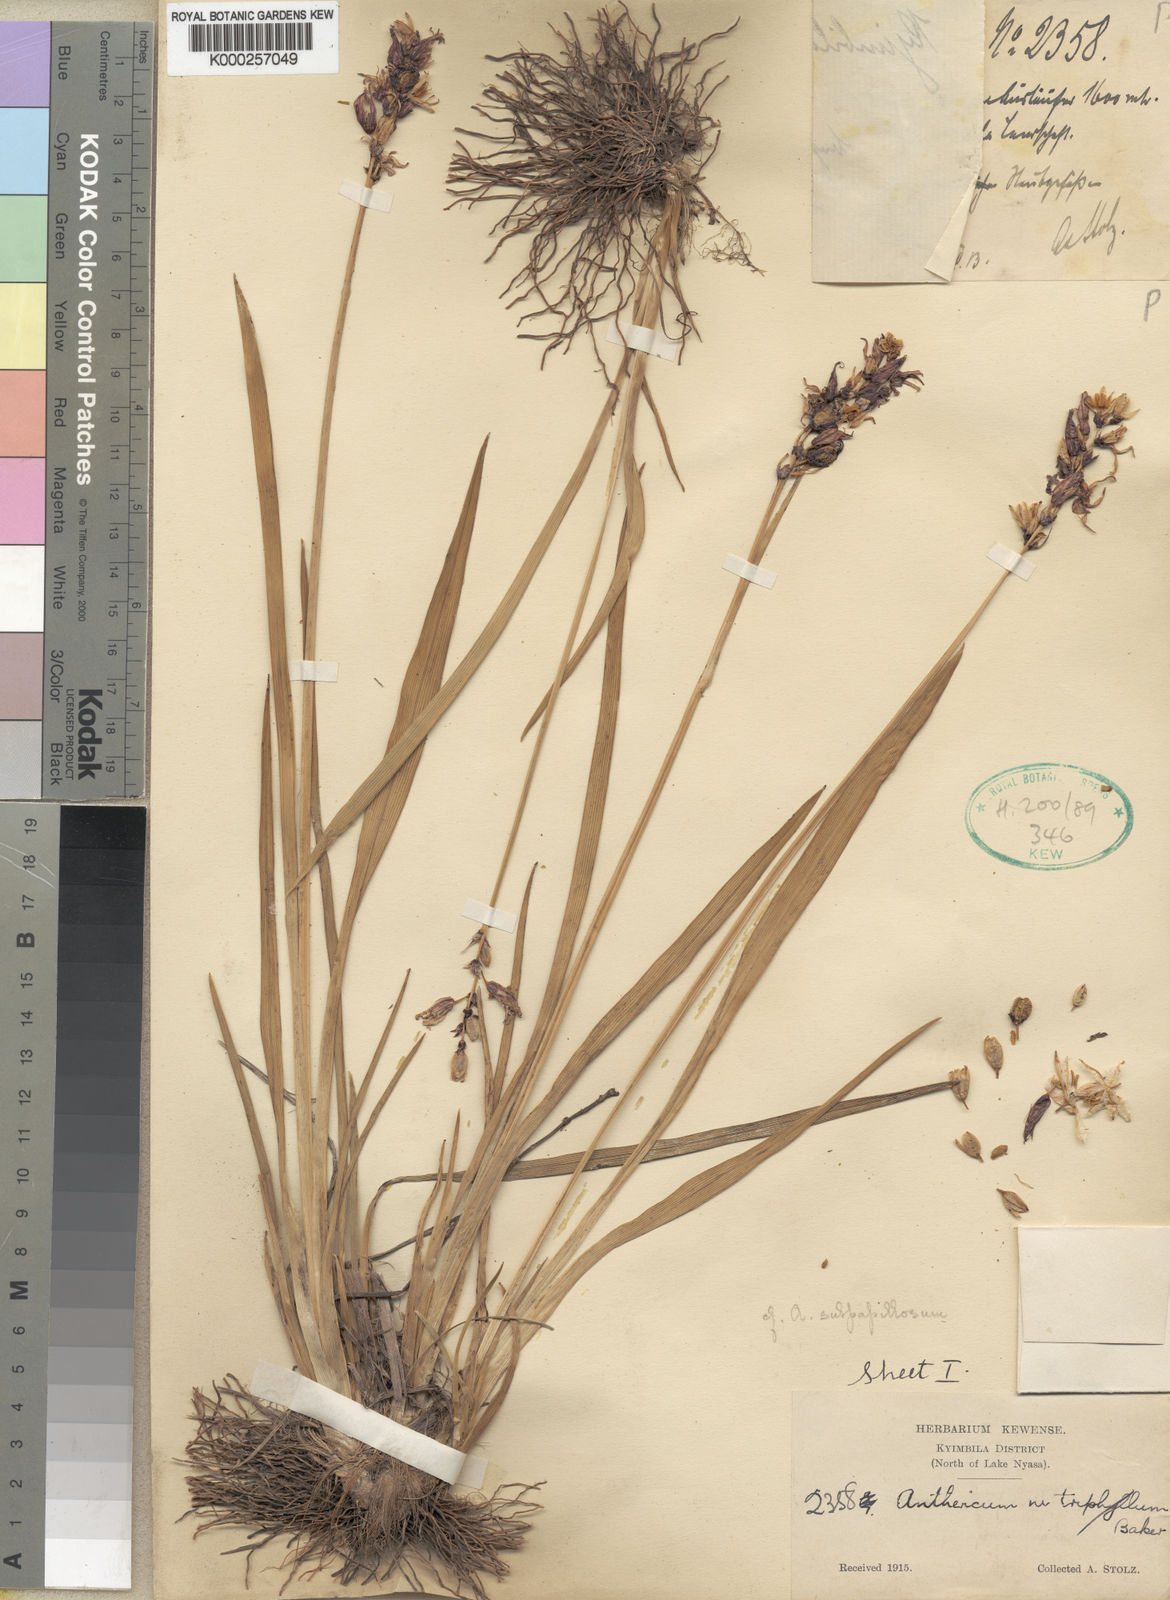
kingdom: Plantae
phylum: Tracheophyta
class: Liliopsida
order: Asparagales
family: Asparagaceae
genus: Chlorophytum
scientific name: Chlorophytum cameronii
